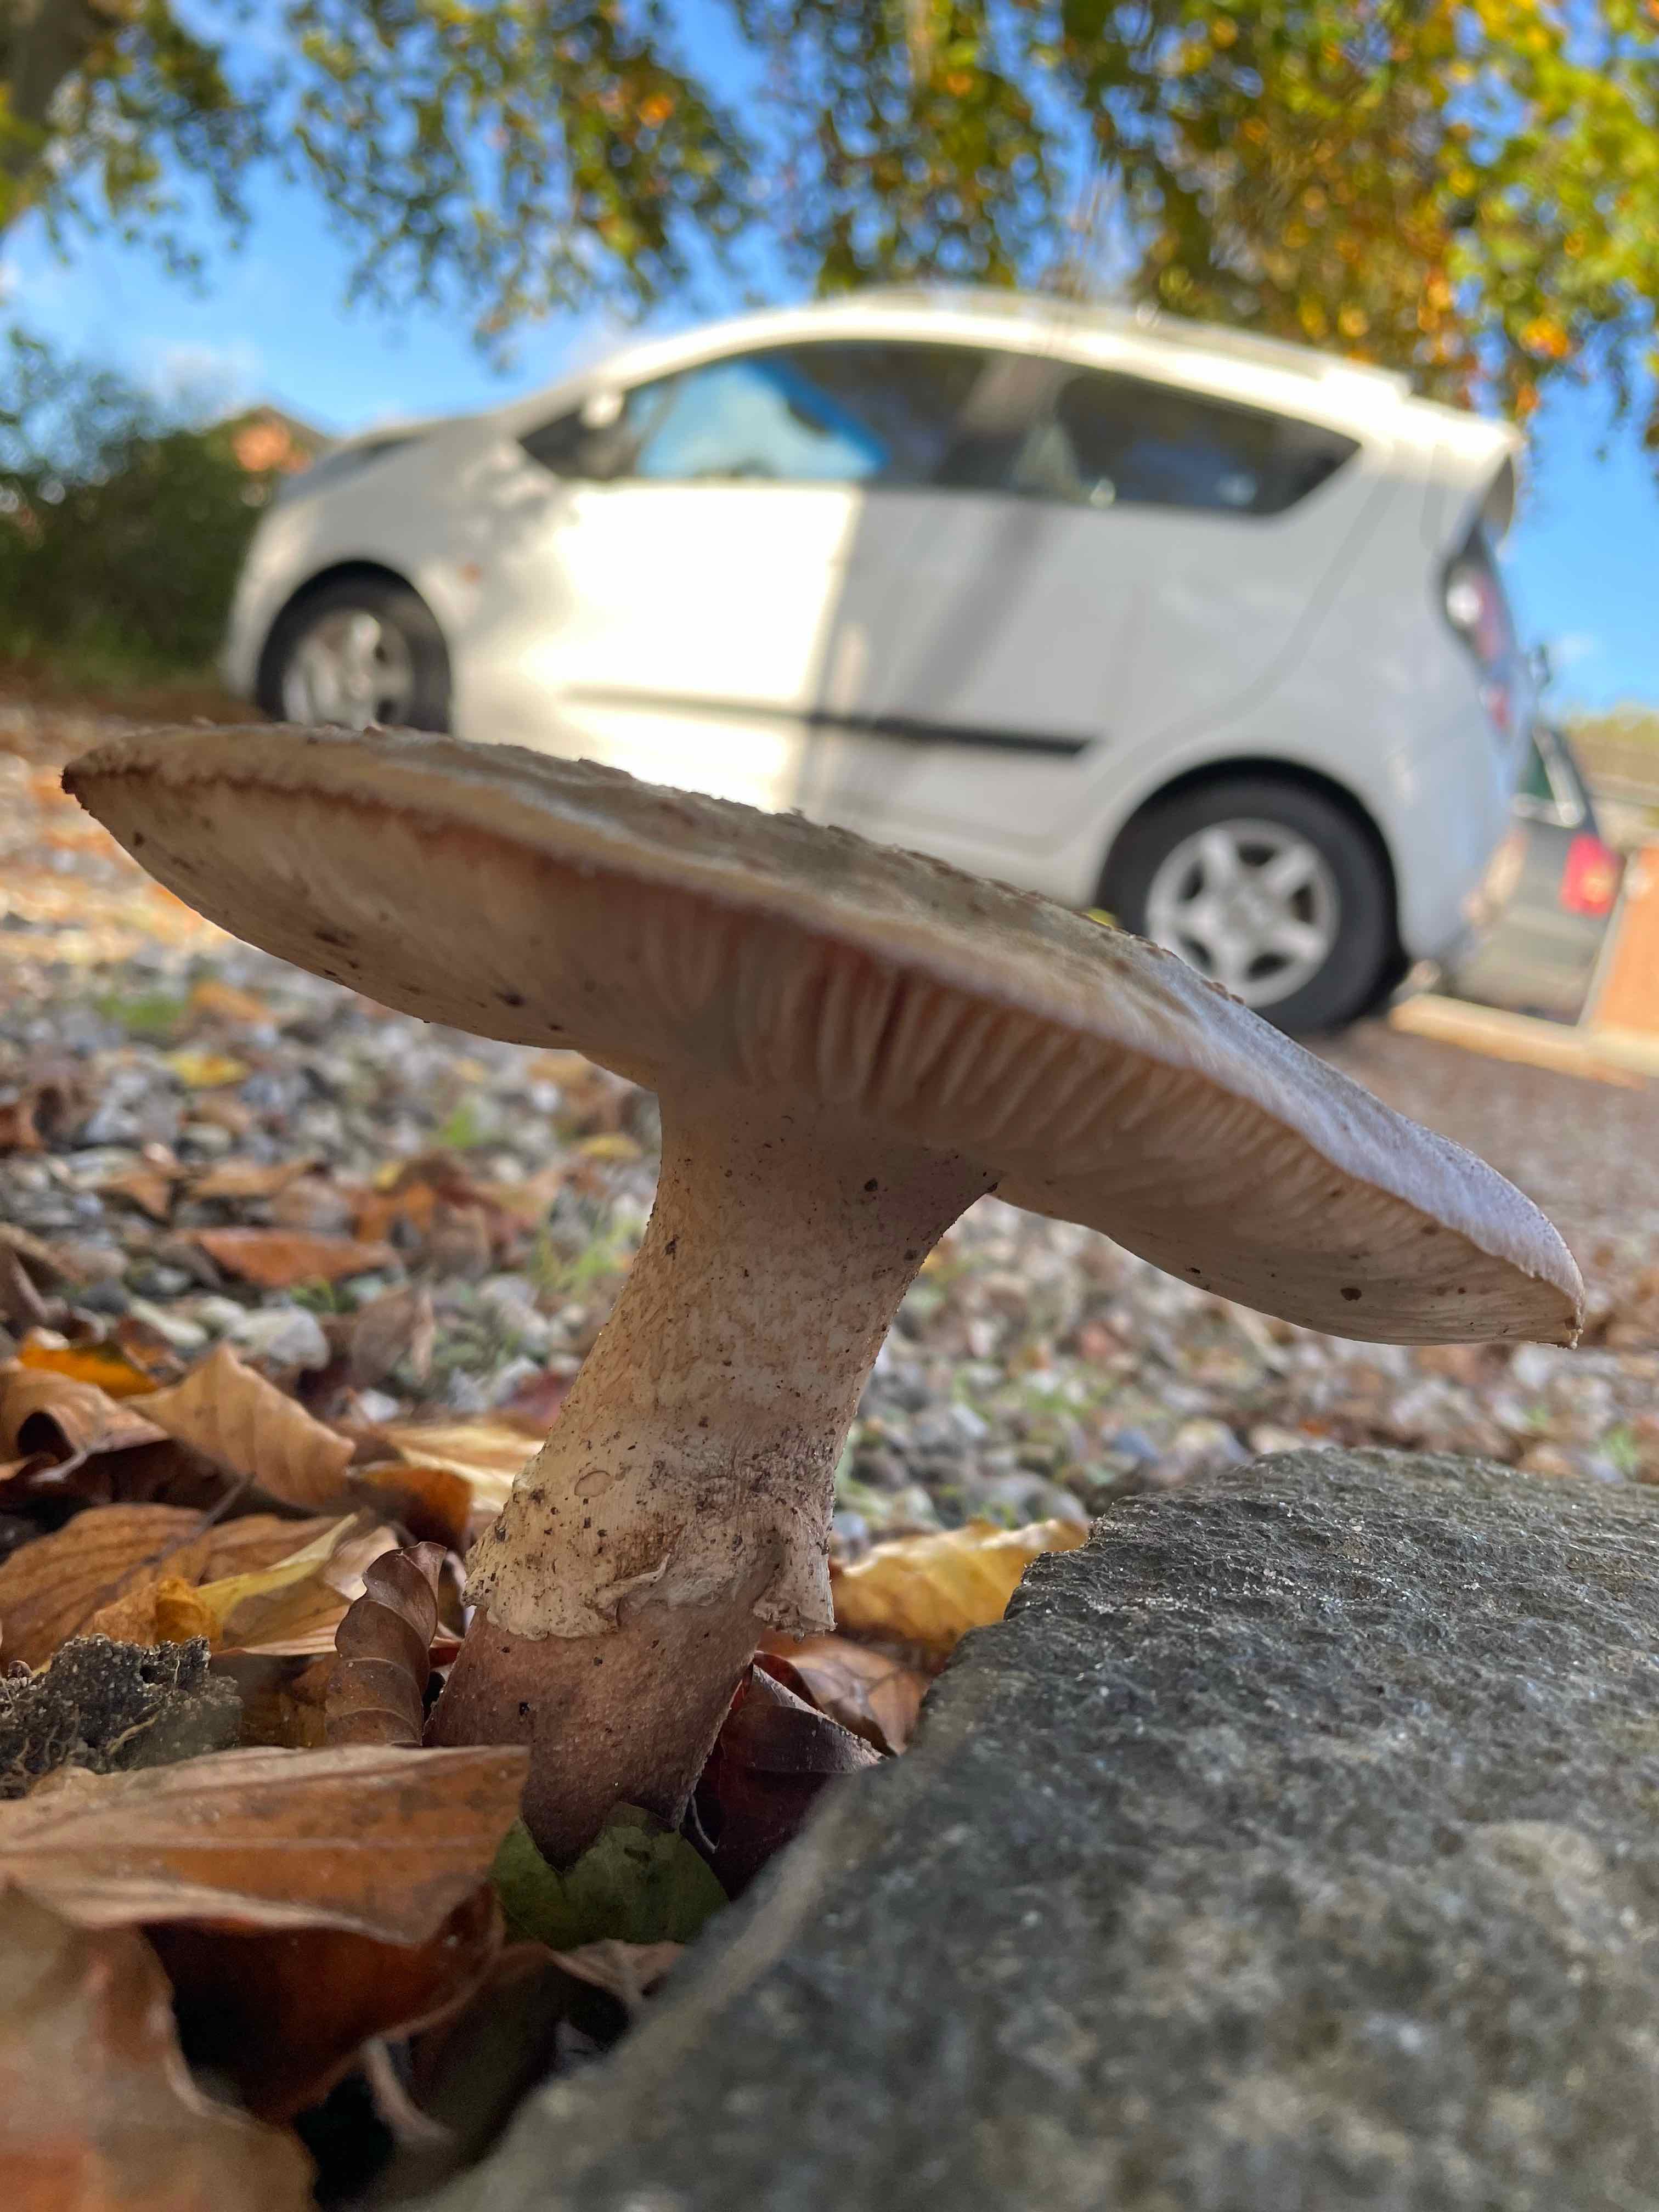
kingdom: Fungi
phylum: Basidiomycota
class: Agaricomycetes
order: Agaricales
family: Amanitaceae
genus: Amanita
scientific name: Amanita rubescens
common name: rødmende fluesvamp
